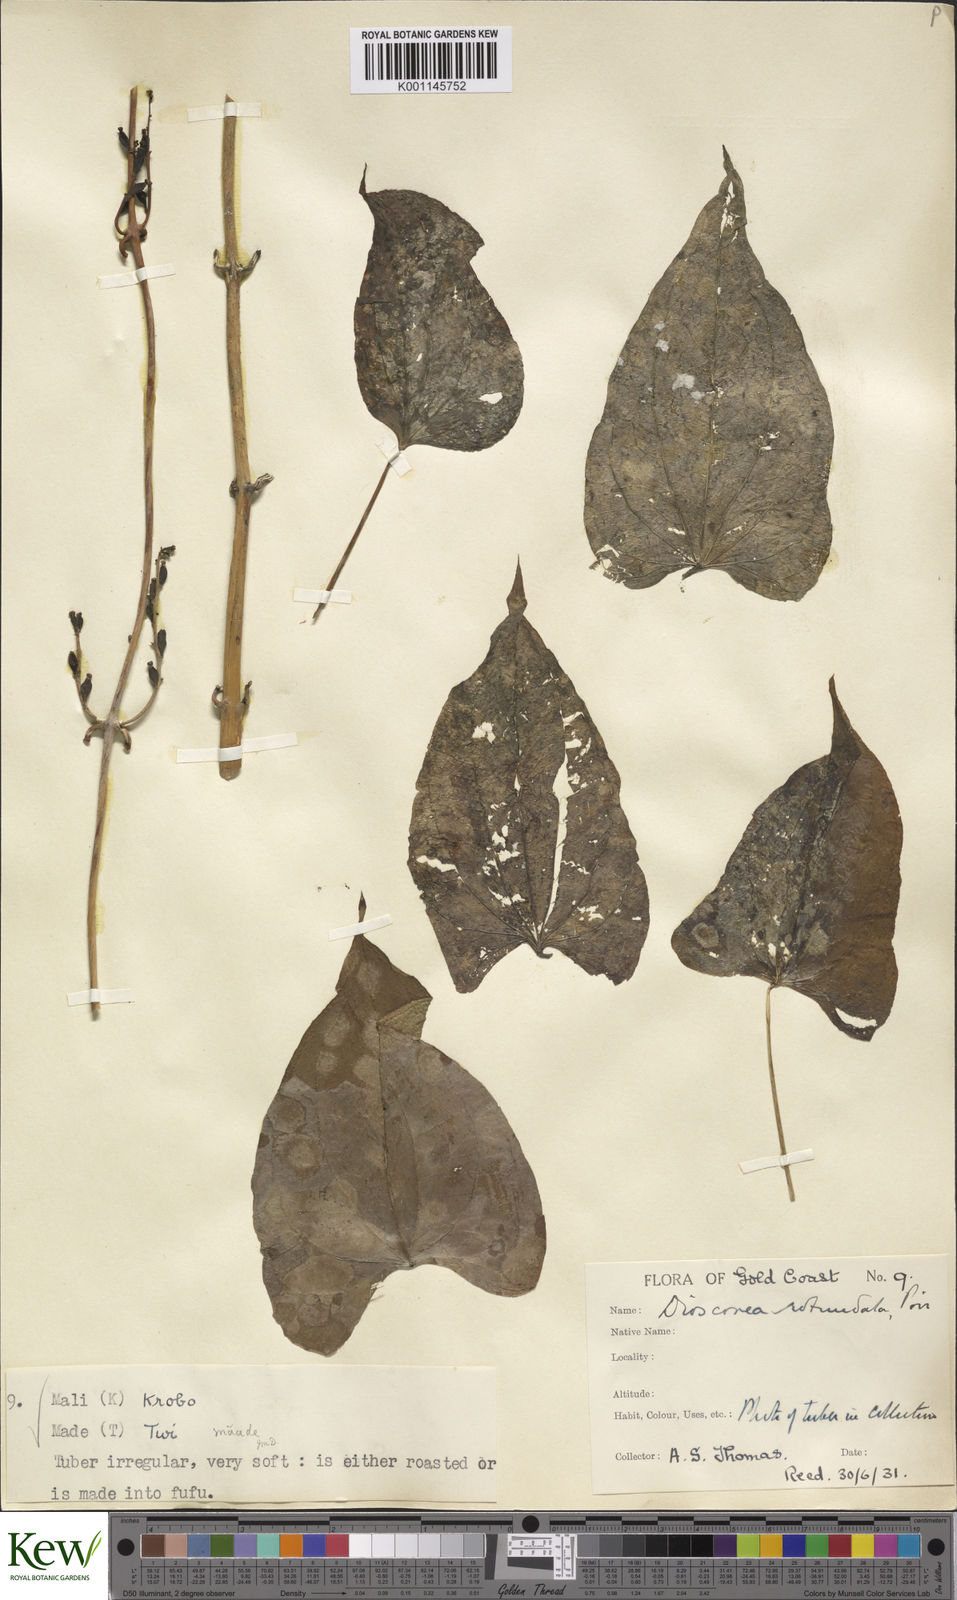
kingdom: Plantae
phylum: Tracheophyta
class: Liliopsida
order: Dioscoreales
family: Dioscoreaceae
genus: Dioscorea
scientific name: Dioscorea cayenensis
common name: Attoto yam
